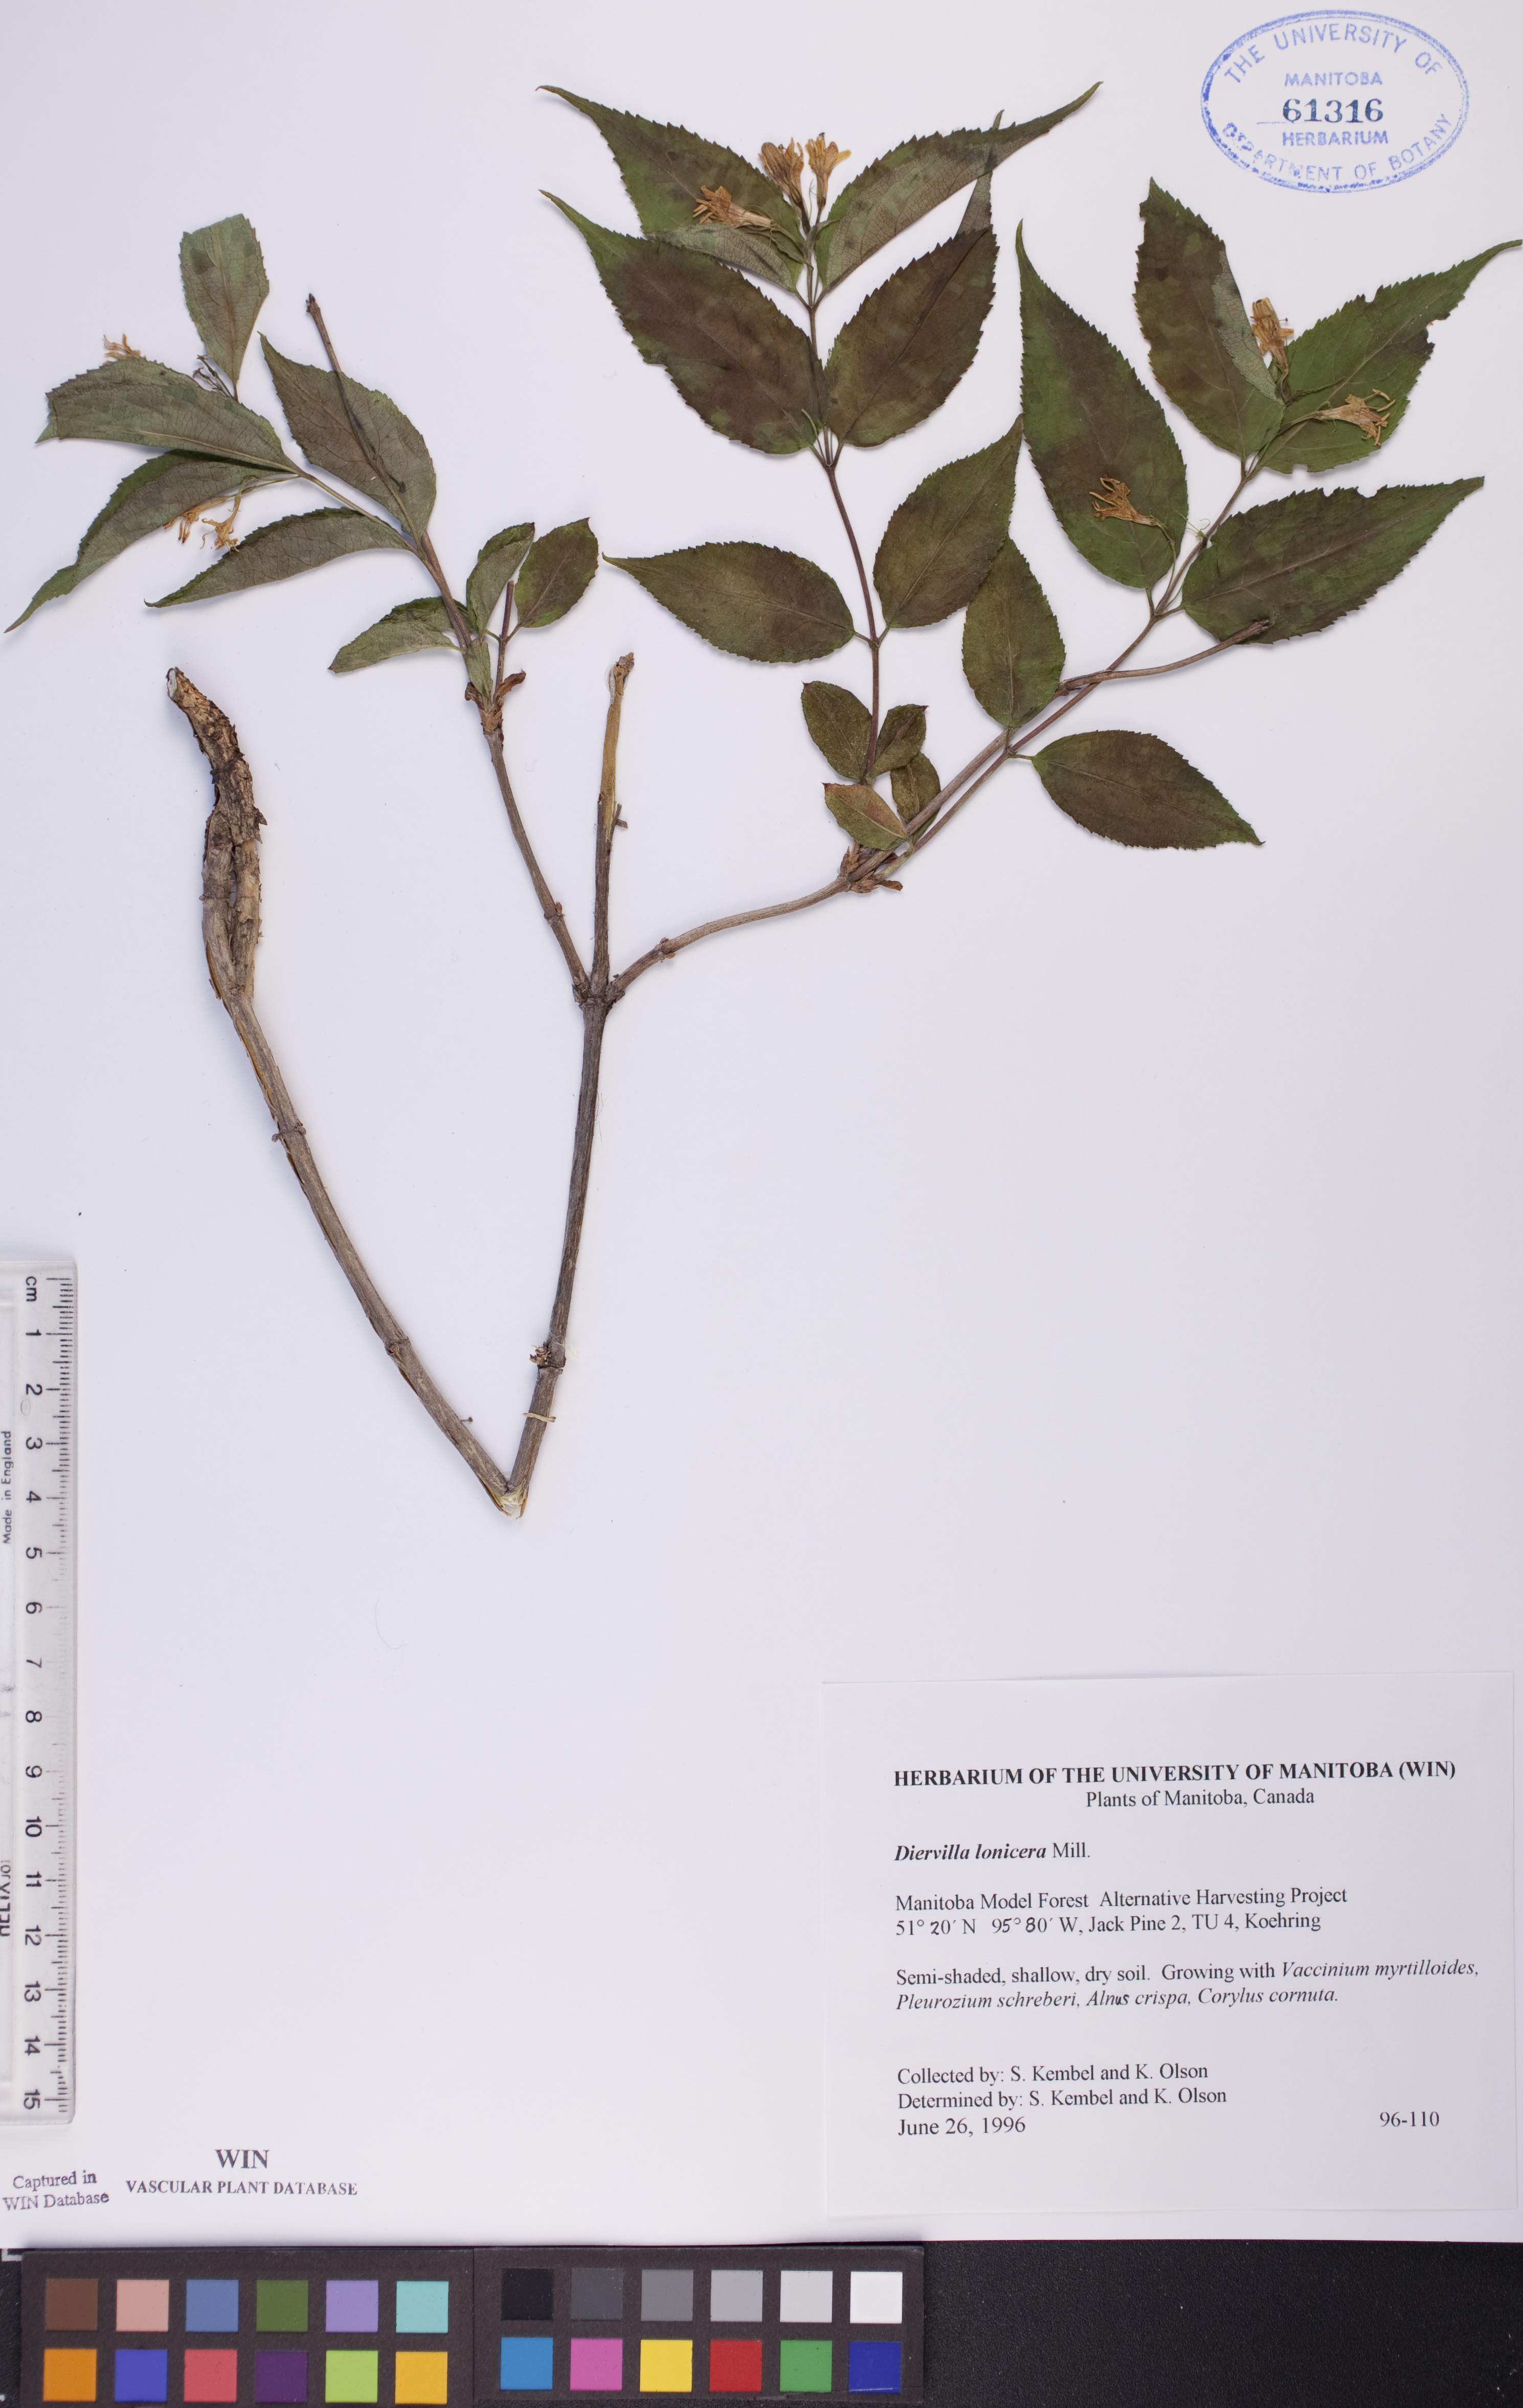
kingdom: Plantae
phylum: Tracheophyta
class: Magnoliopsida
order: Dipsacales
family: Caprifoliaceae
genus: Diervilla
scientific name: Diervilla lonicera
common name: Bush-honeysuckle
